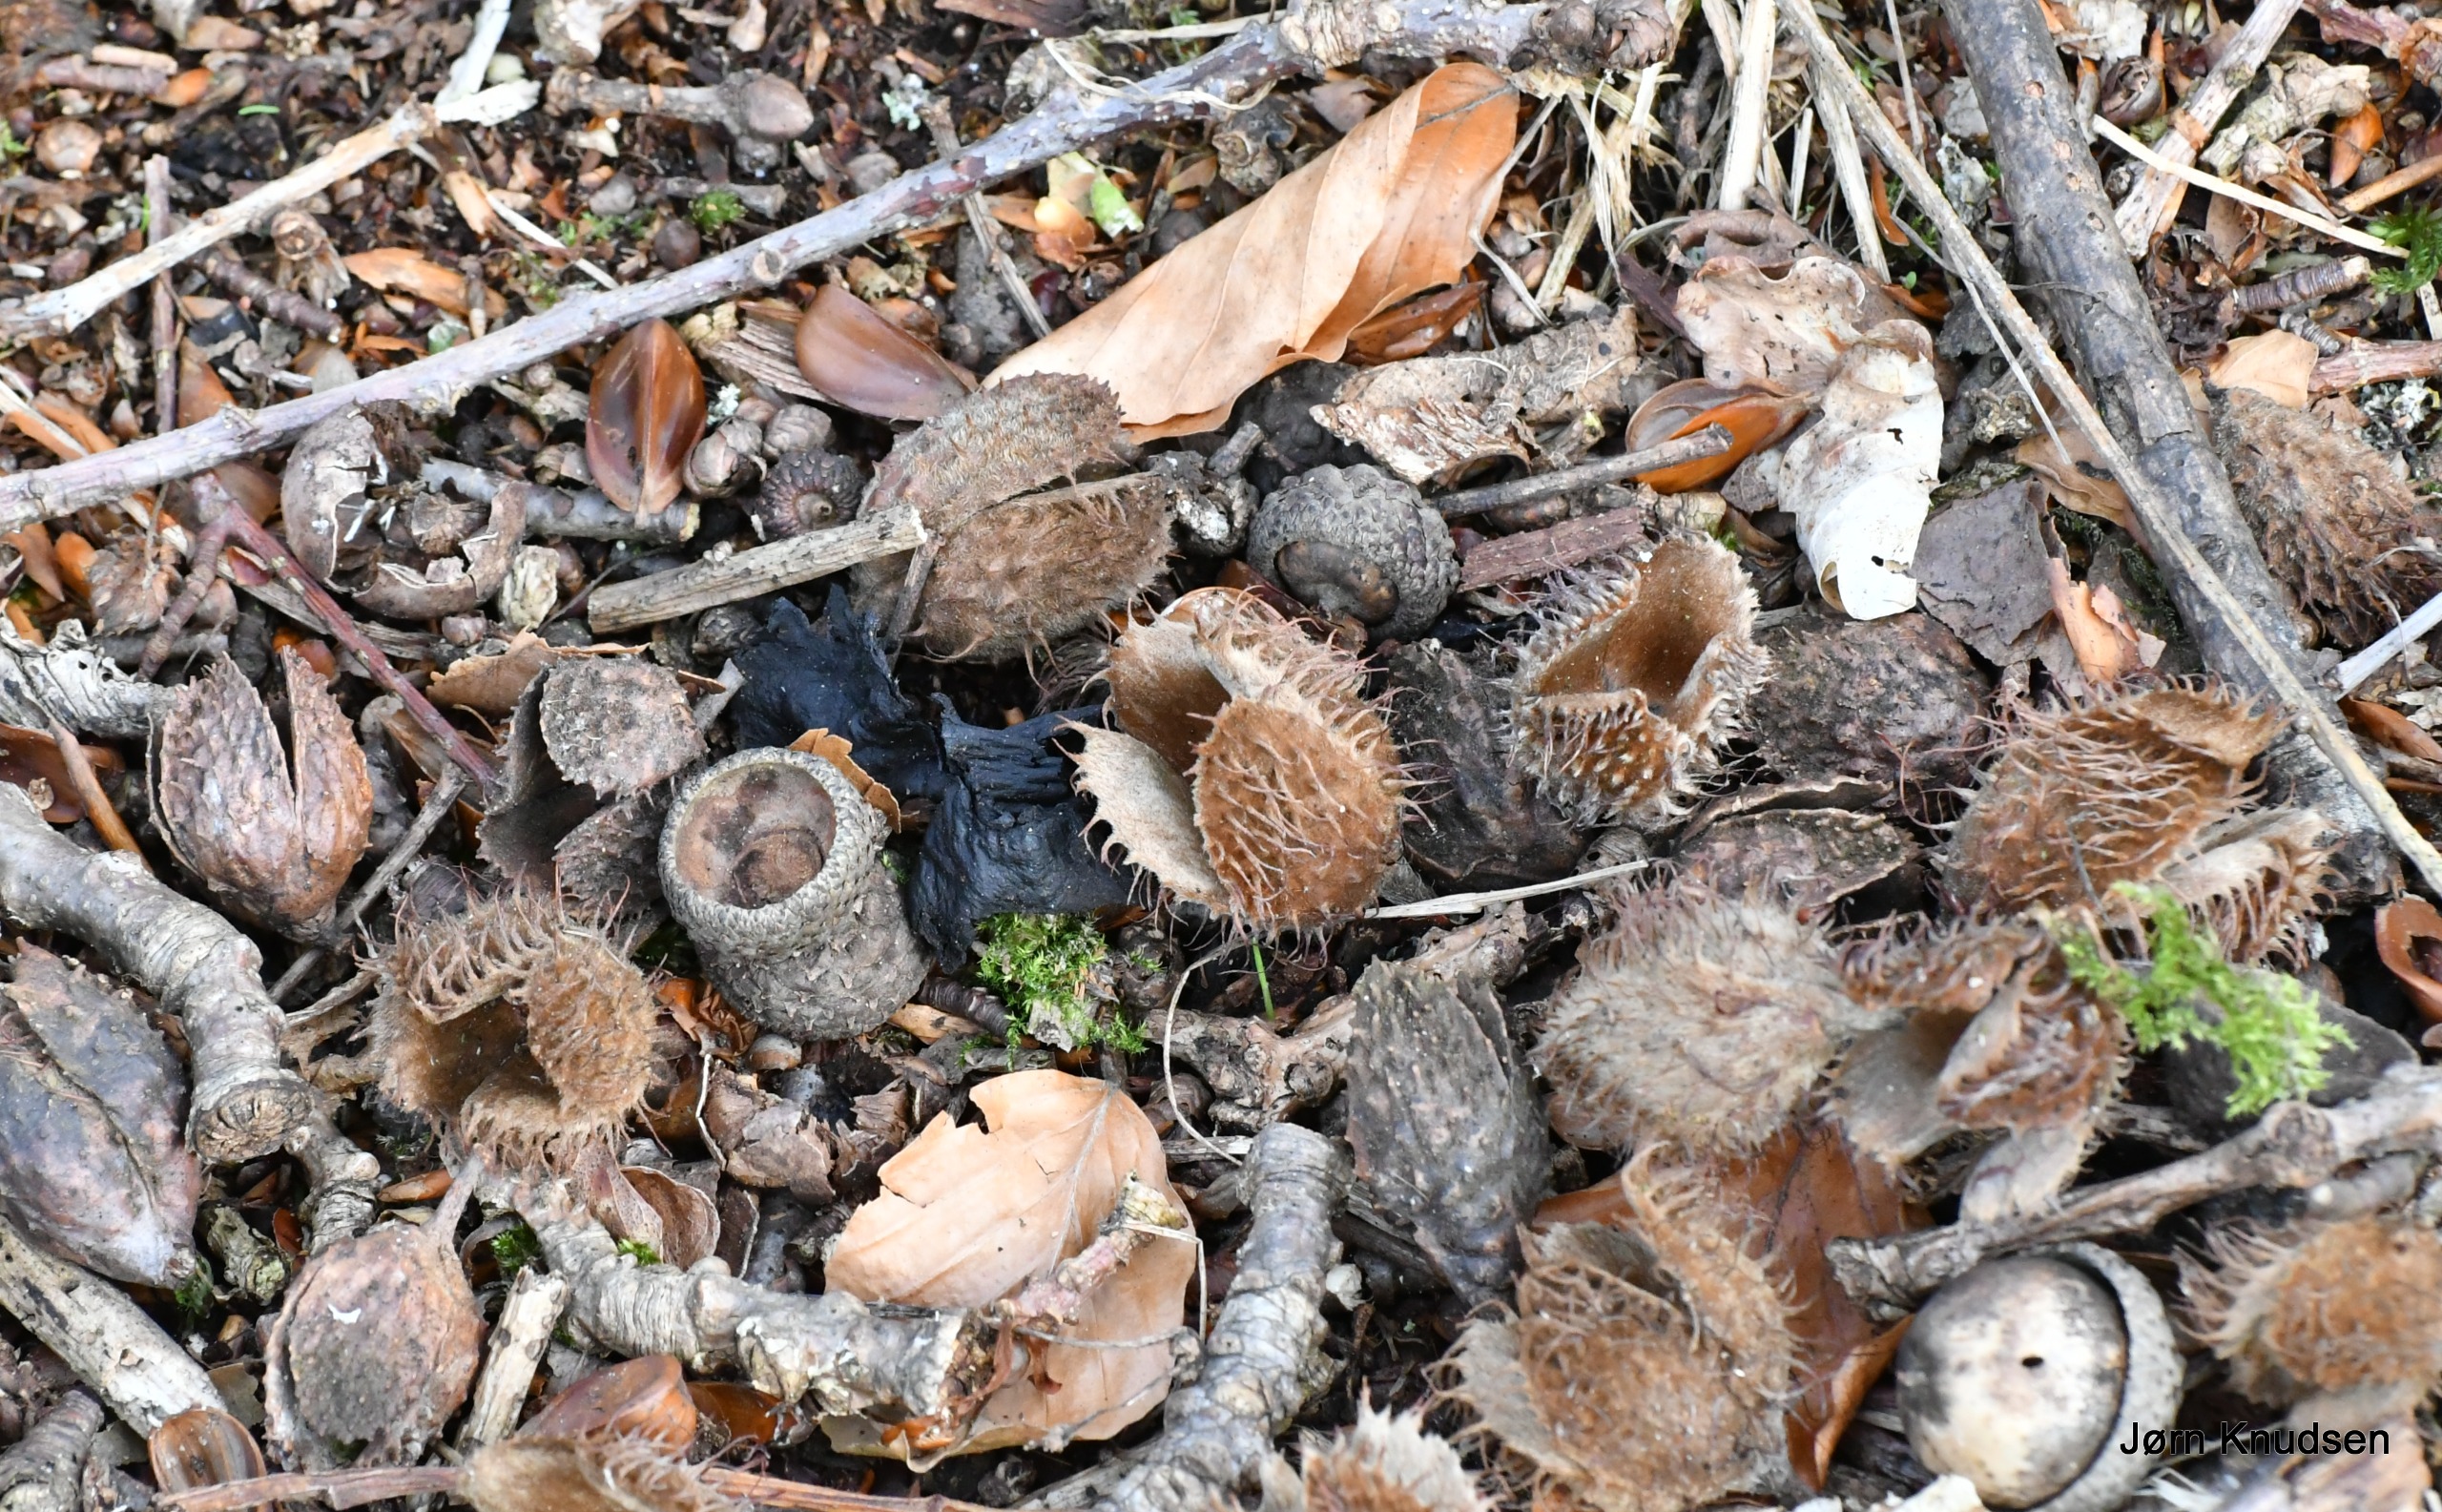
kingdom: Plantae
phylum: Tracheophyta
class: Magnoliopsida
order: Fagales
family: Fagaceae
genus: Fagus
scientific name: Fagus sylvatica
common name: Bøg
